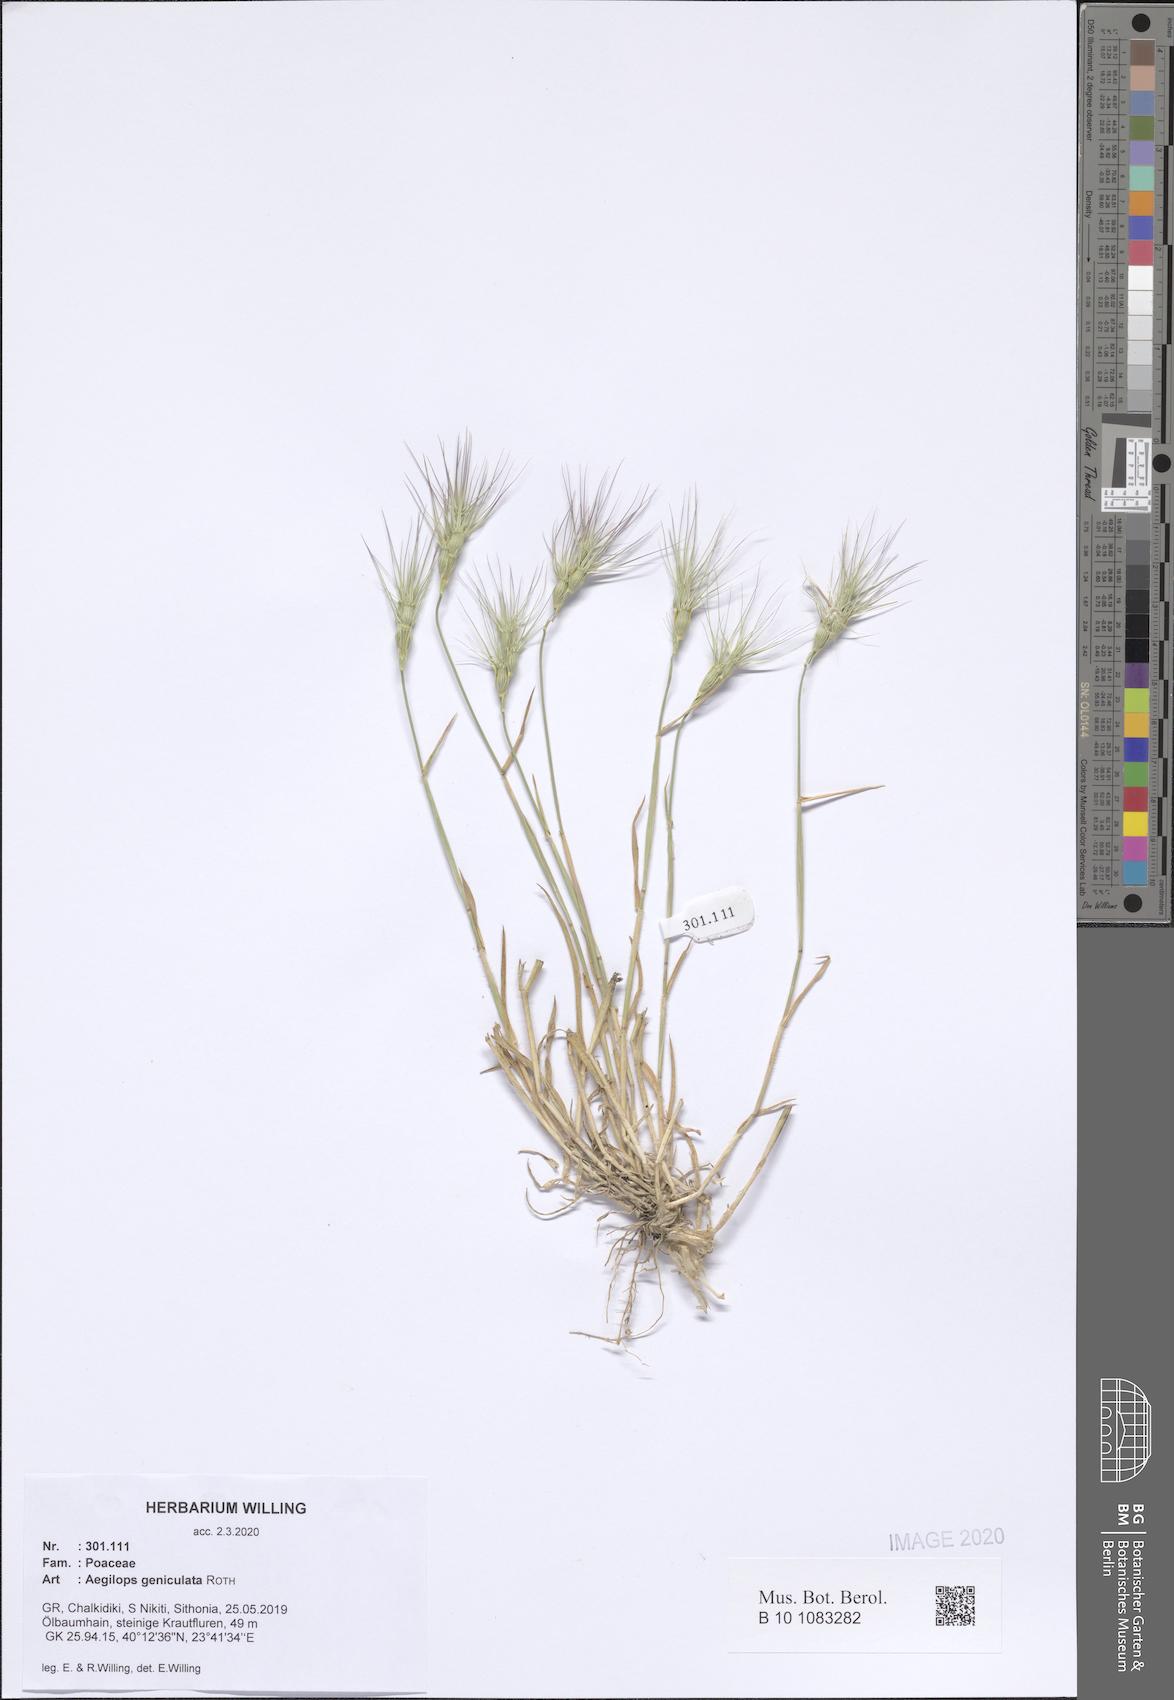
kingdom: Plantae
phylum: Tracheophyta
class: Liliopsida
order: Poales
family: Poaceae
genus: Aegilops
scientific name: Aegilops geniculata
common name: Ovate goat grass
